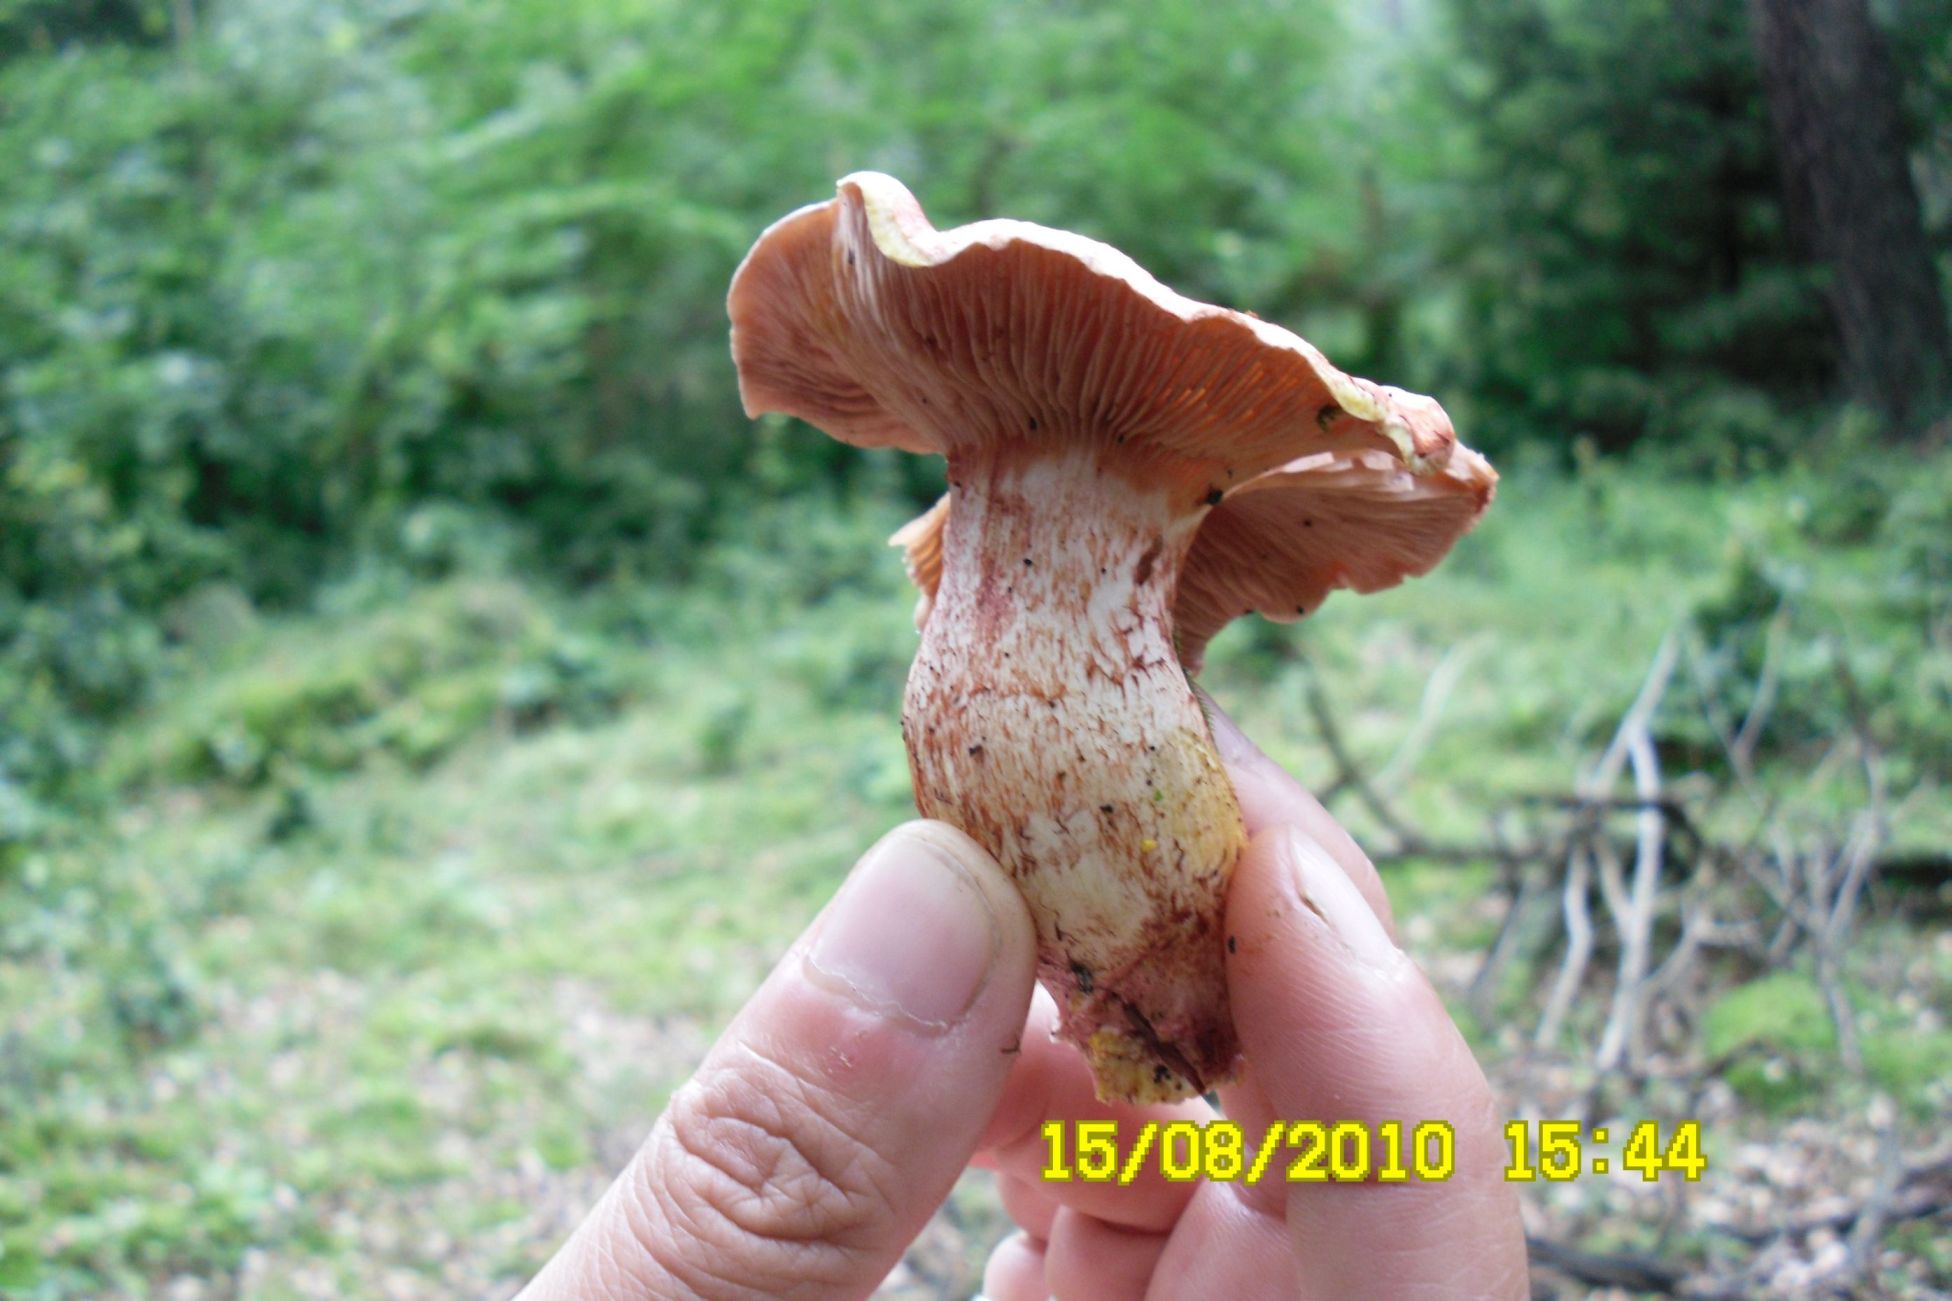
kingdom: Fungi
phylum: Basidiomycota
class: Agaricomycetes
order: Agaricales
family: Cortinariaceae
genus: Cortinarius
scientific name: Cortinarius bolaris
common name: cinnoberskællet slørhat
